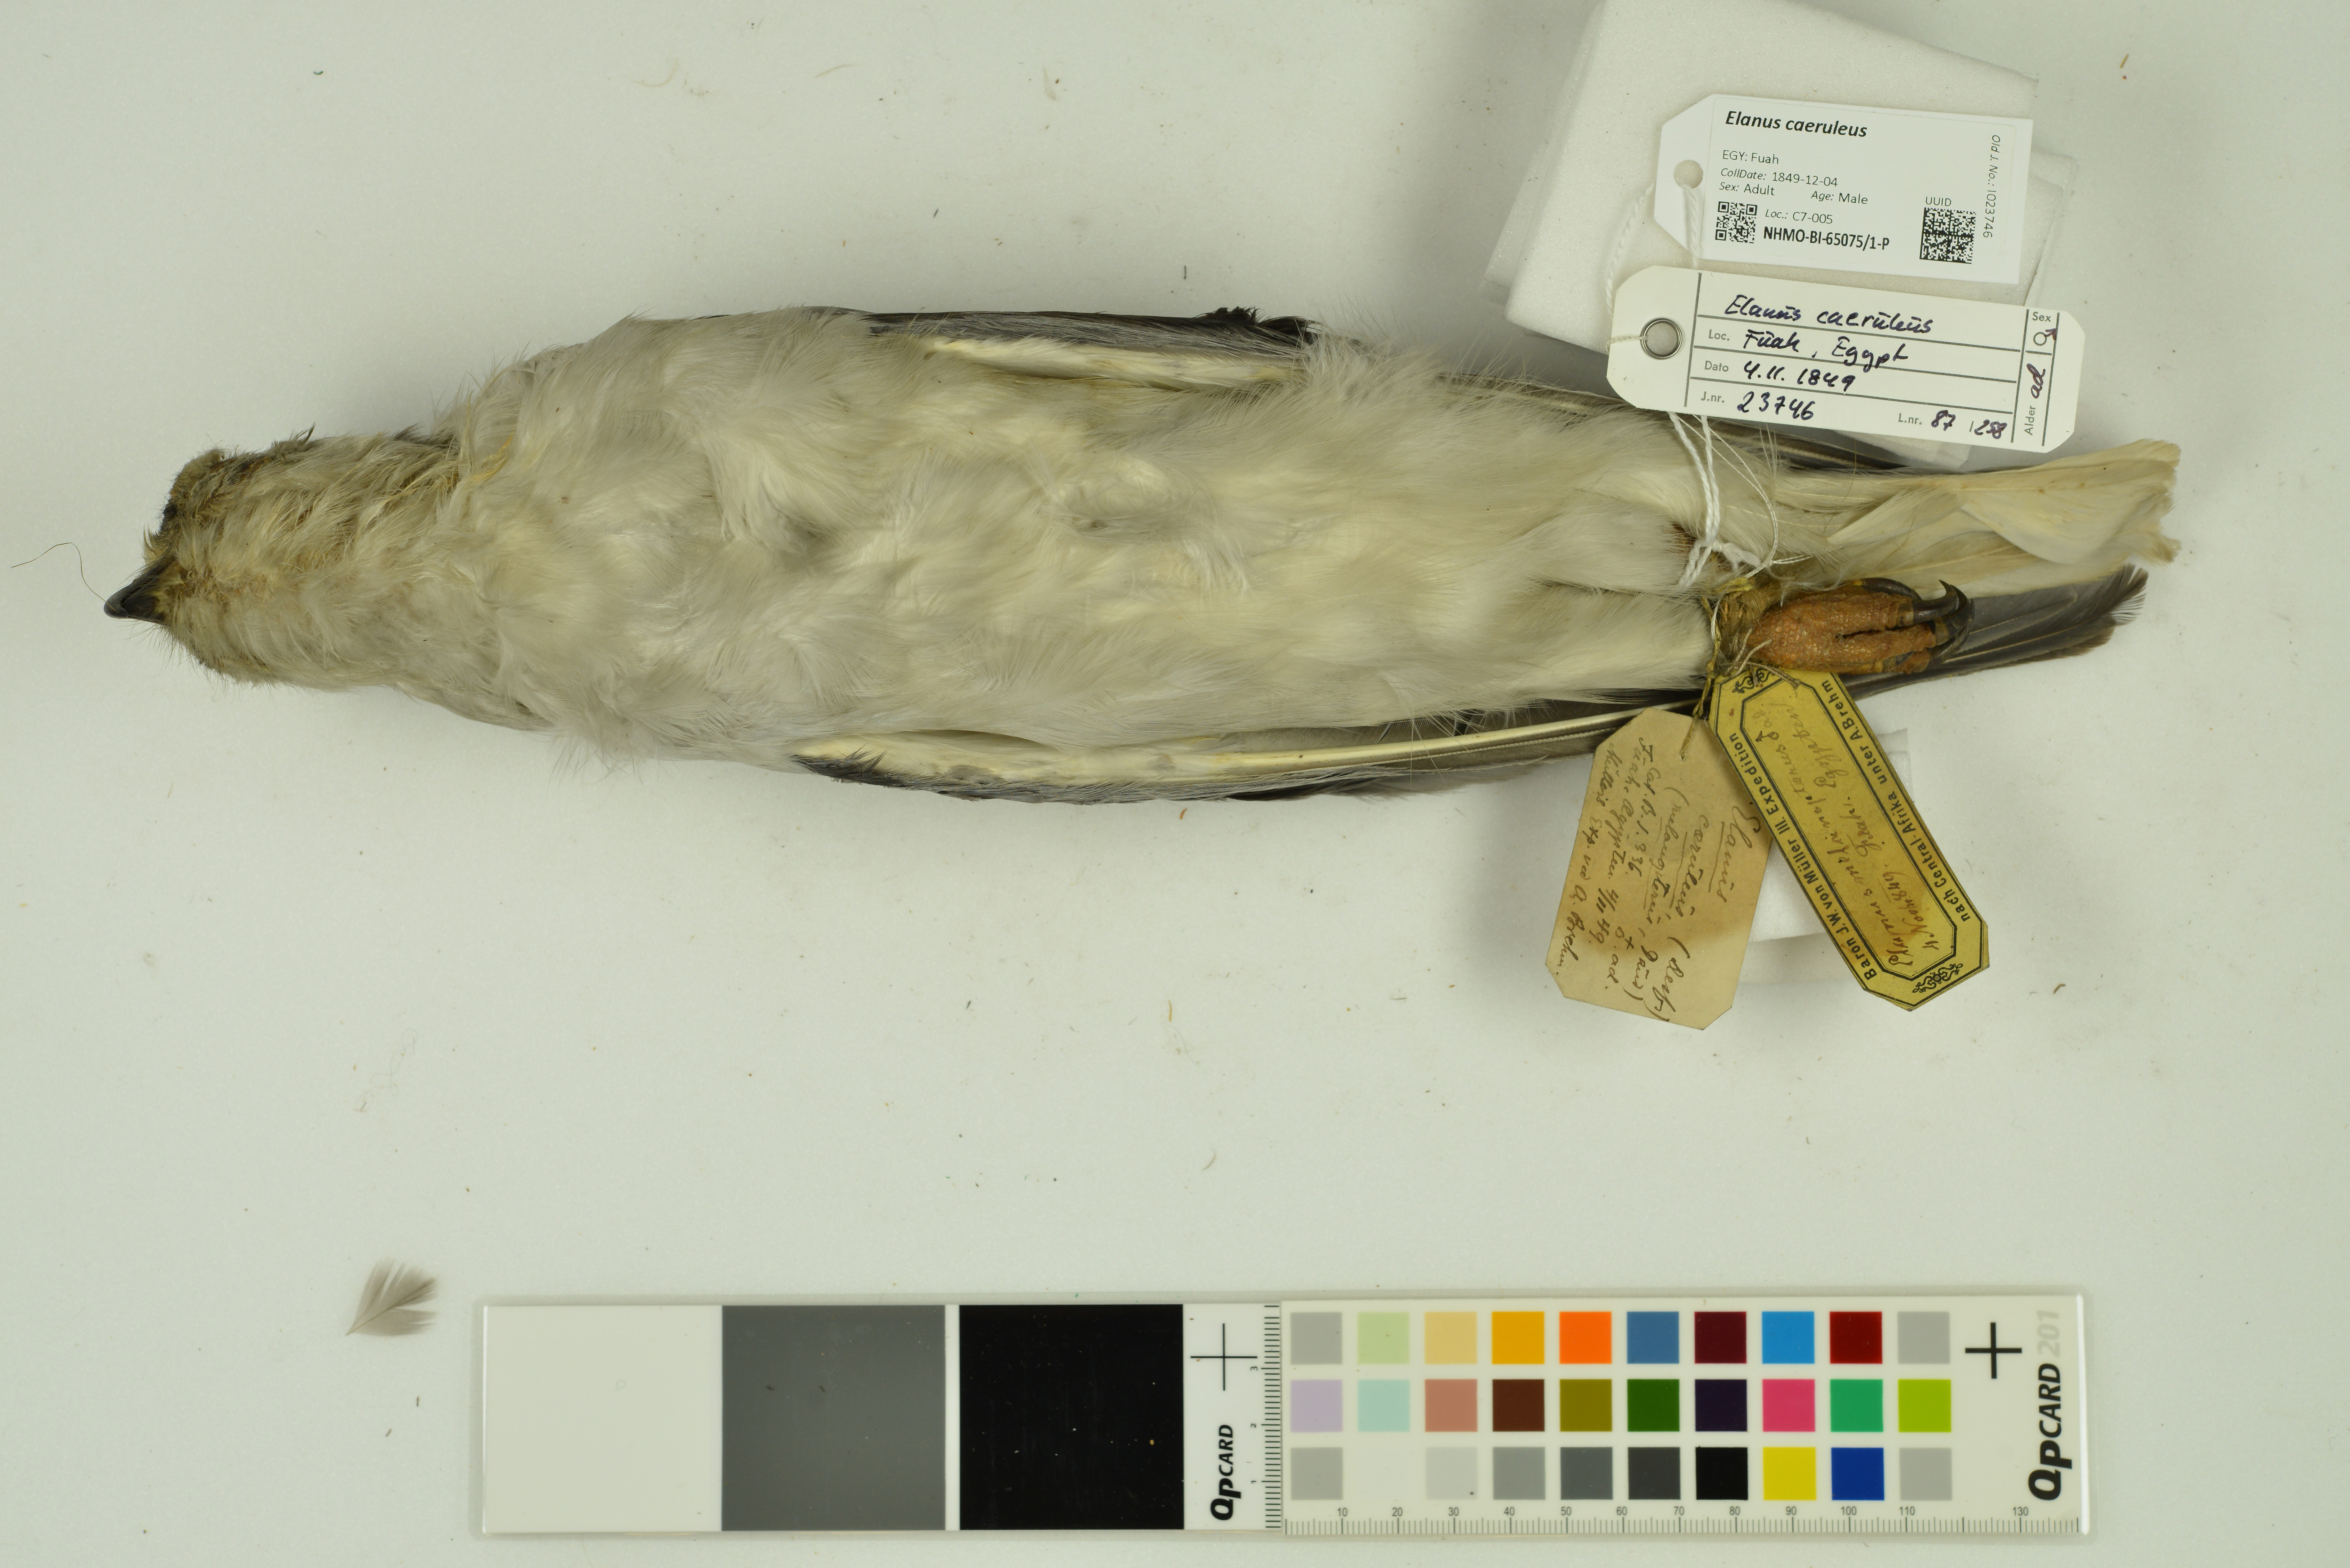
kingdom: Animalia
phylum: Chordata
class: Aves
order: Accipitriformes
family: Accipitridae
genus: Elanus
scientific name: Elanus caeruleus
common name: Black-winged kite
